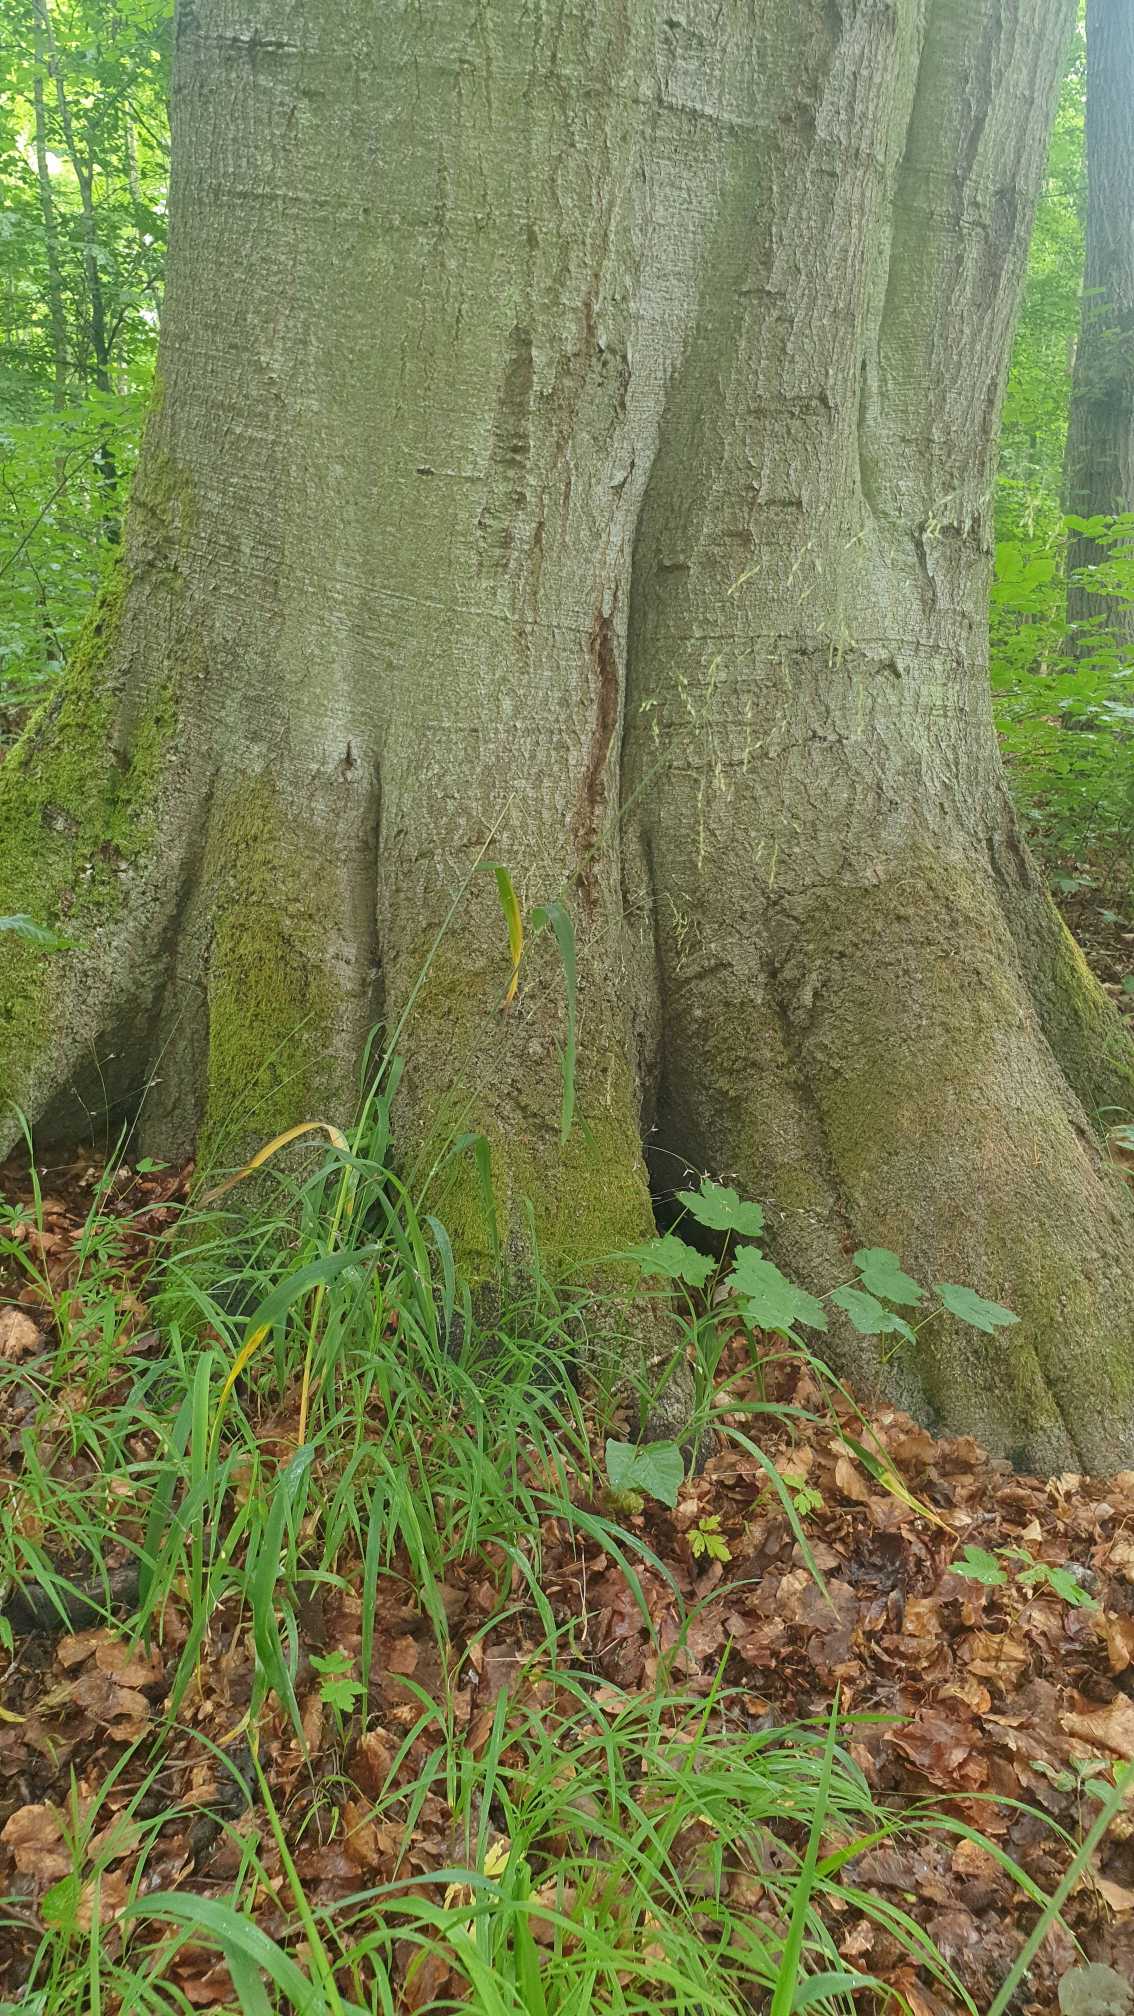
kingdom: Plantae
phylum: Tracheophyta
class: Liliopsida
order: Poales
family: Poaceae
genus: Milium
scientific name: Milium effusum
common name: Miliegræs
